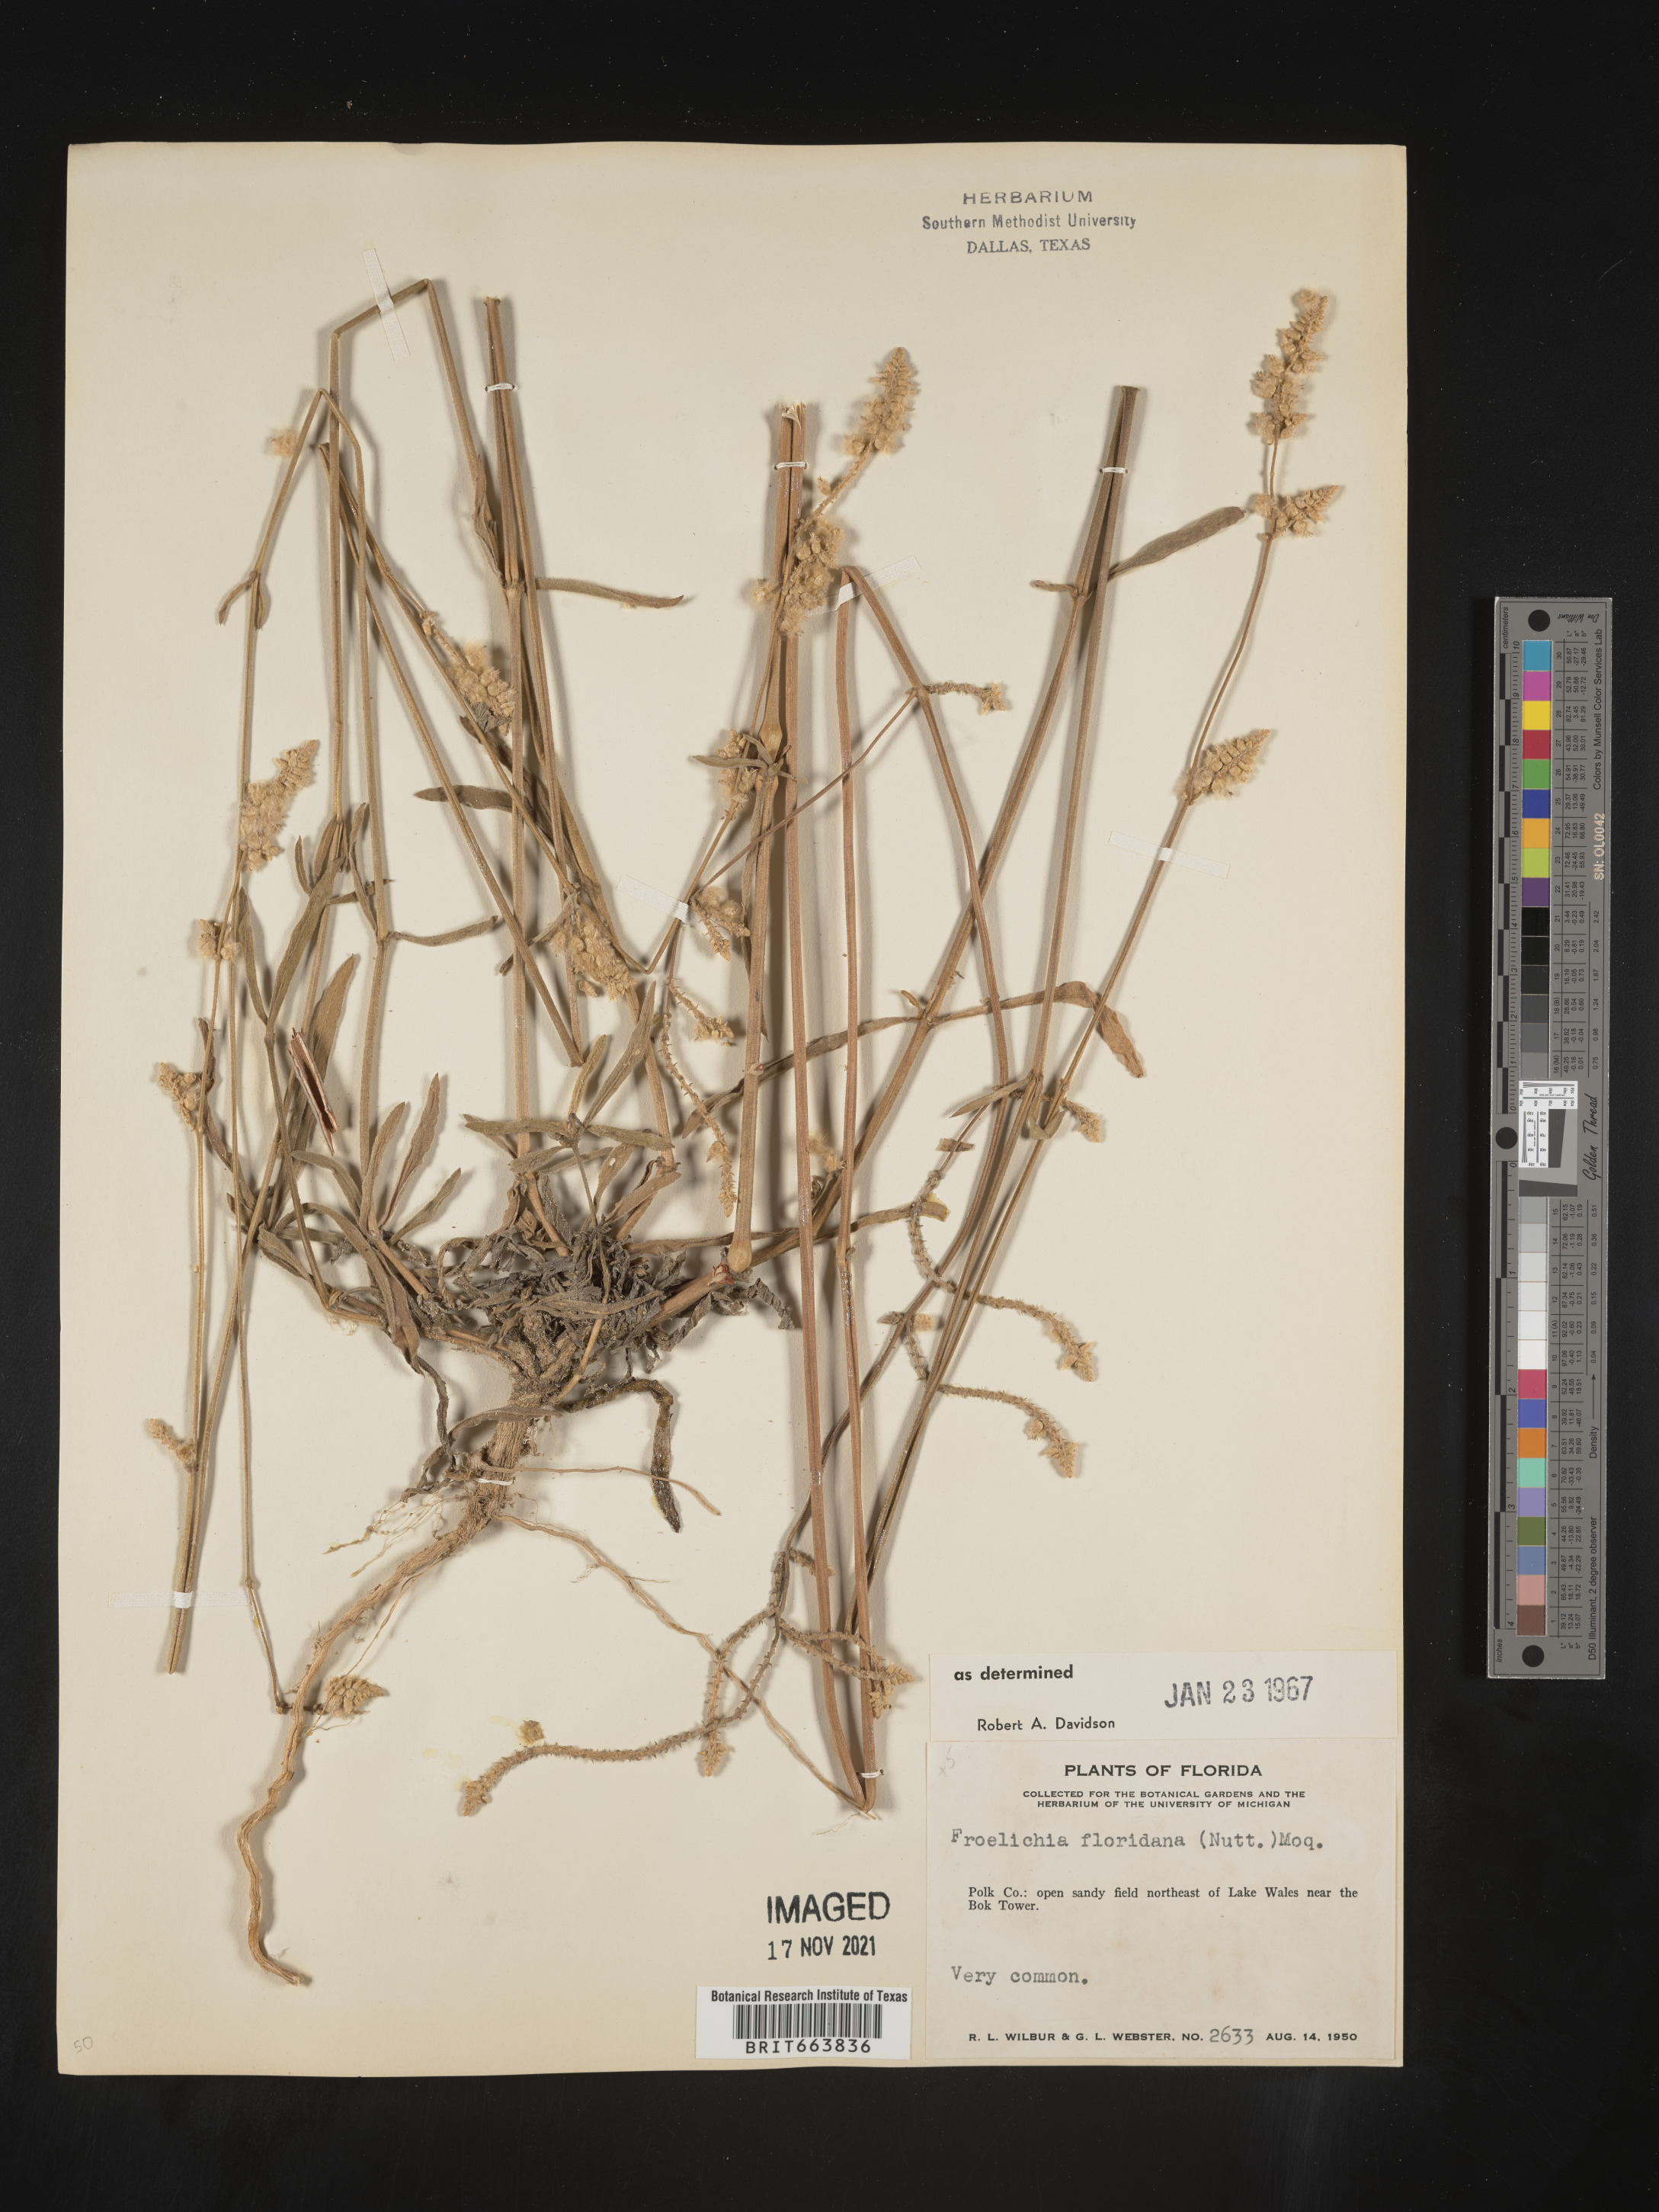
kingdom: Plantae
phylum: Tracheophyta
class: Magnoliopsida
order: Caryophyllales
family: Amaranthaceae
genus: Froelichia
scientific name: Froelichia floridana
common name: Florida snake-cotton
